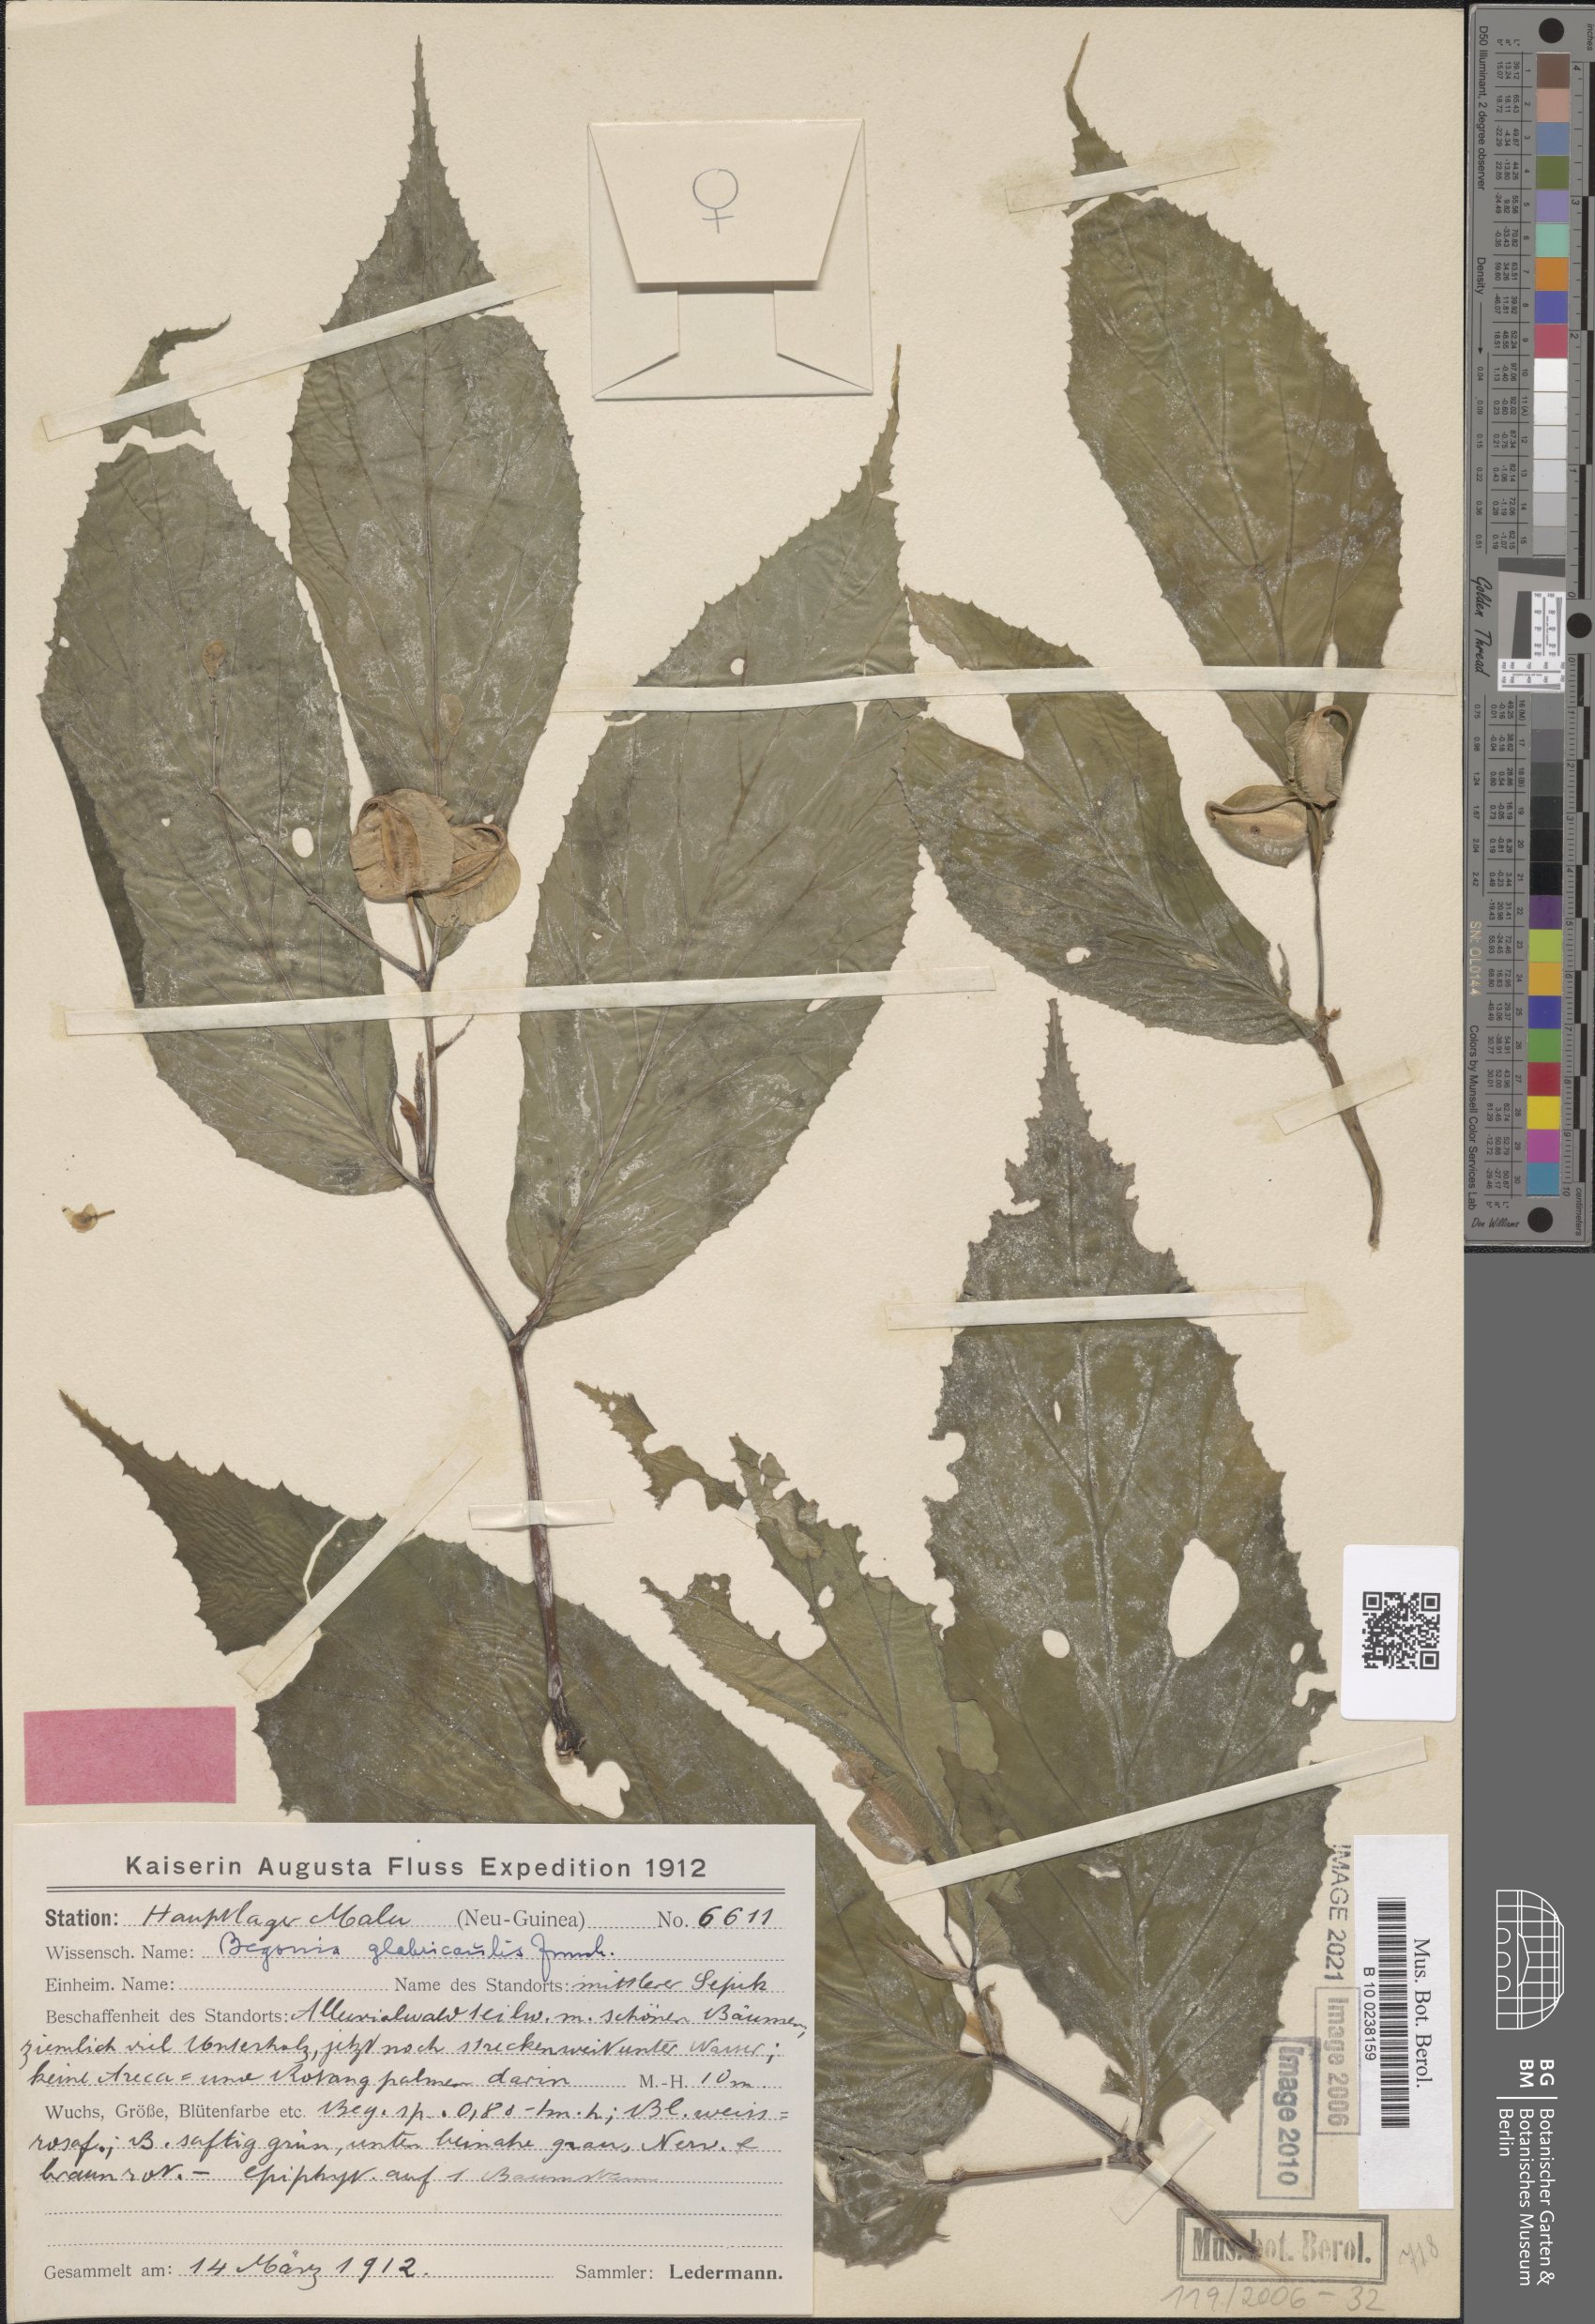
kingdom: Plantae
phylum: Tracheophyta
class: Magnoliopsida
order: Cucurbitales
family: Begoniaceae
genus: Begonia
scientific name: Begonia glabricaulis
